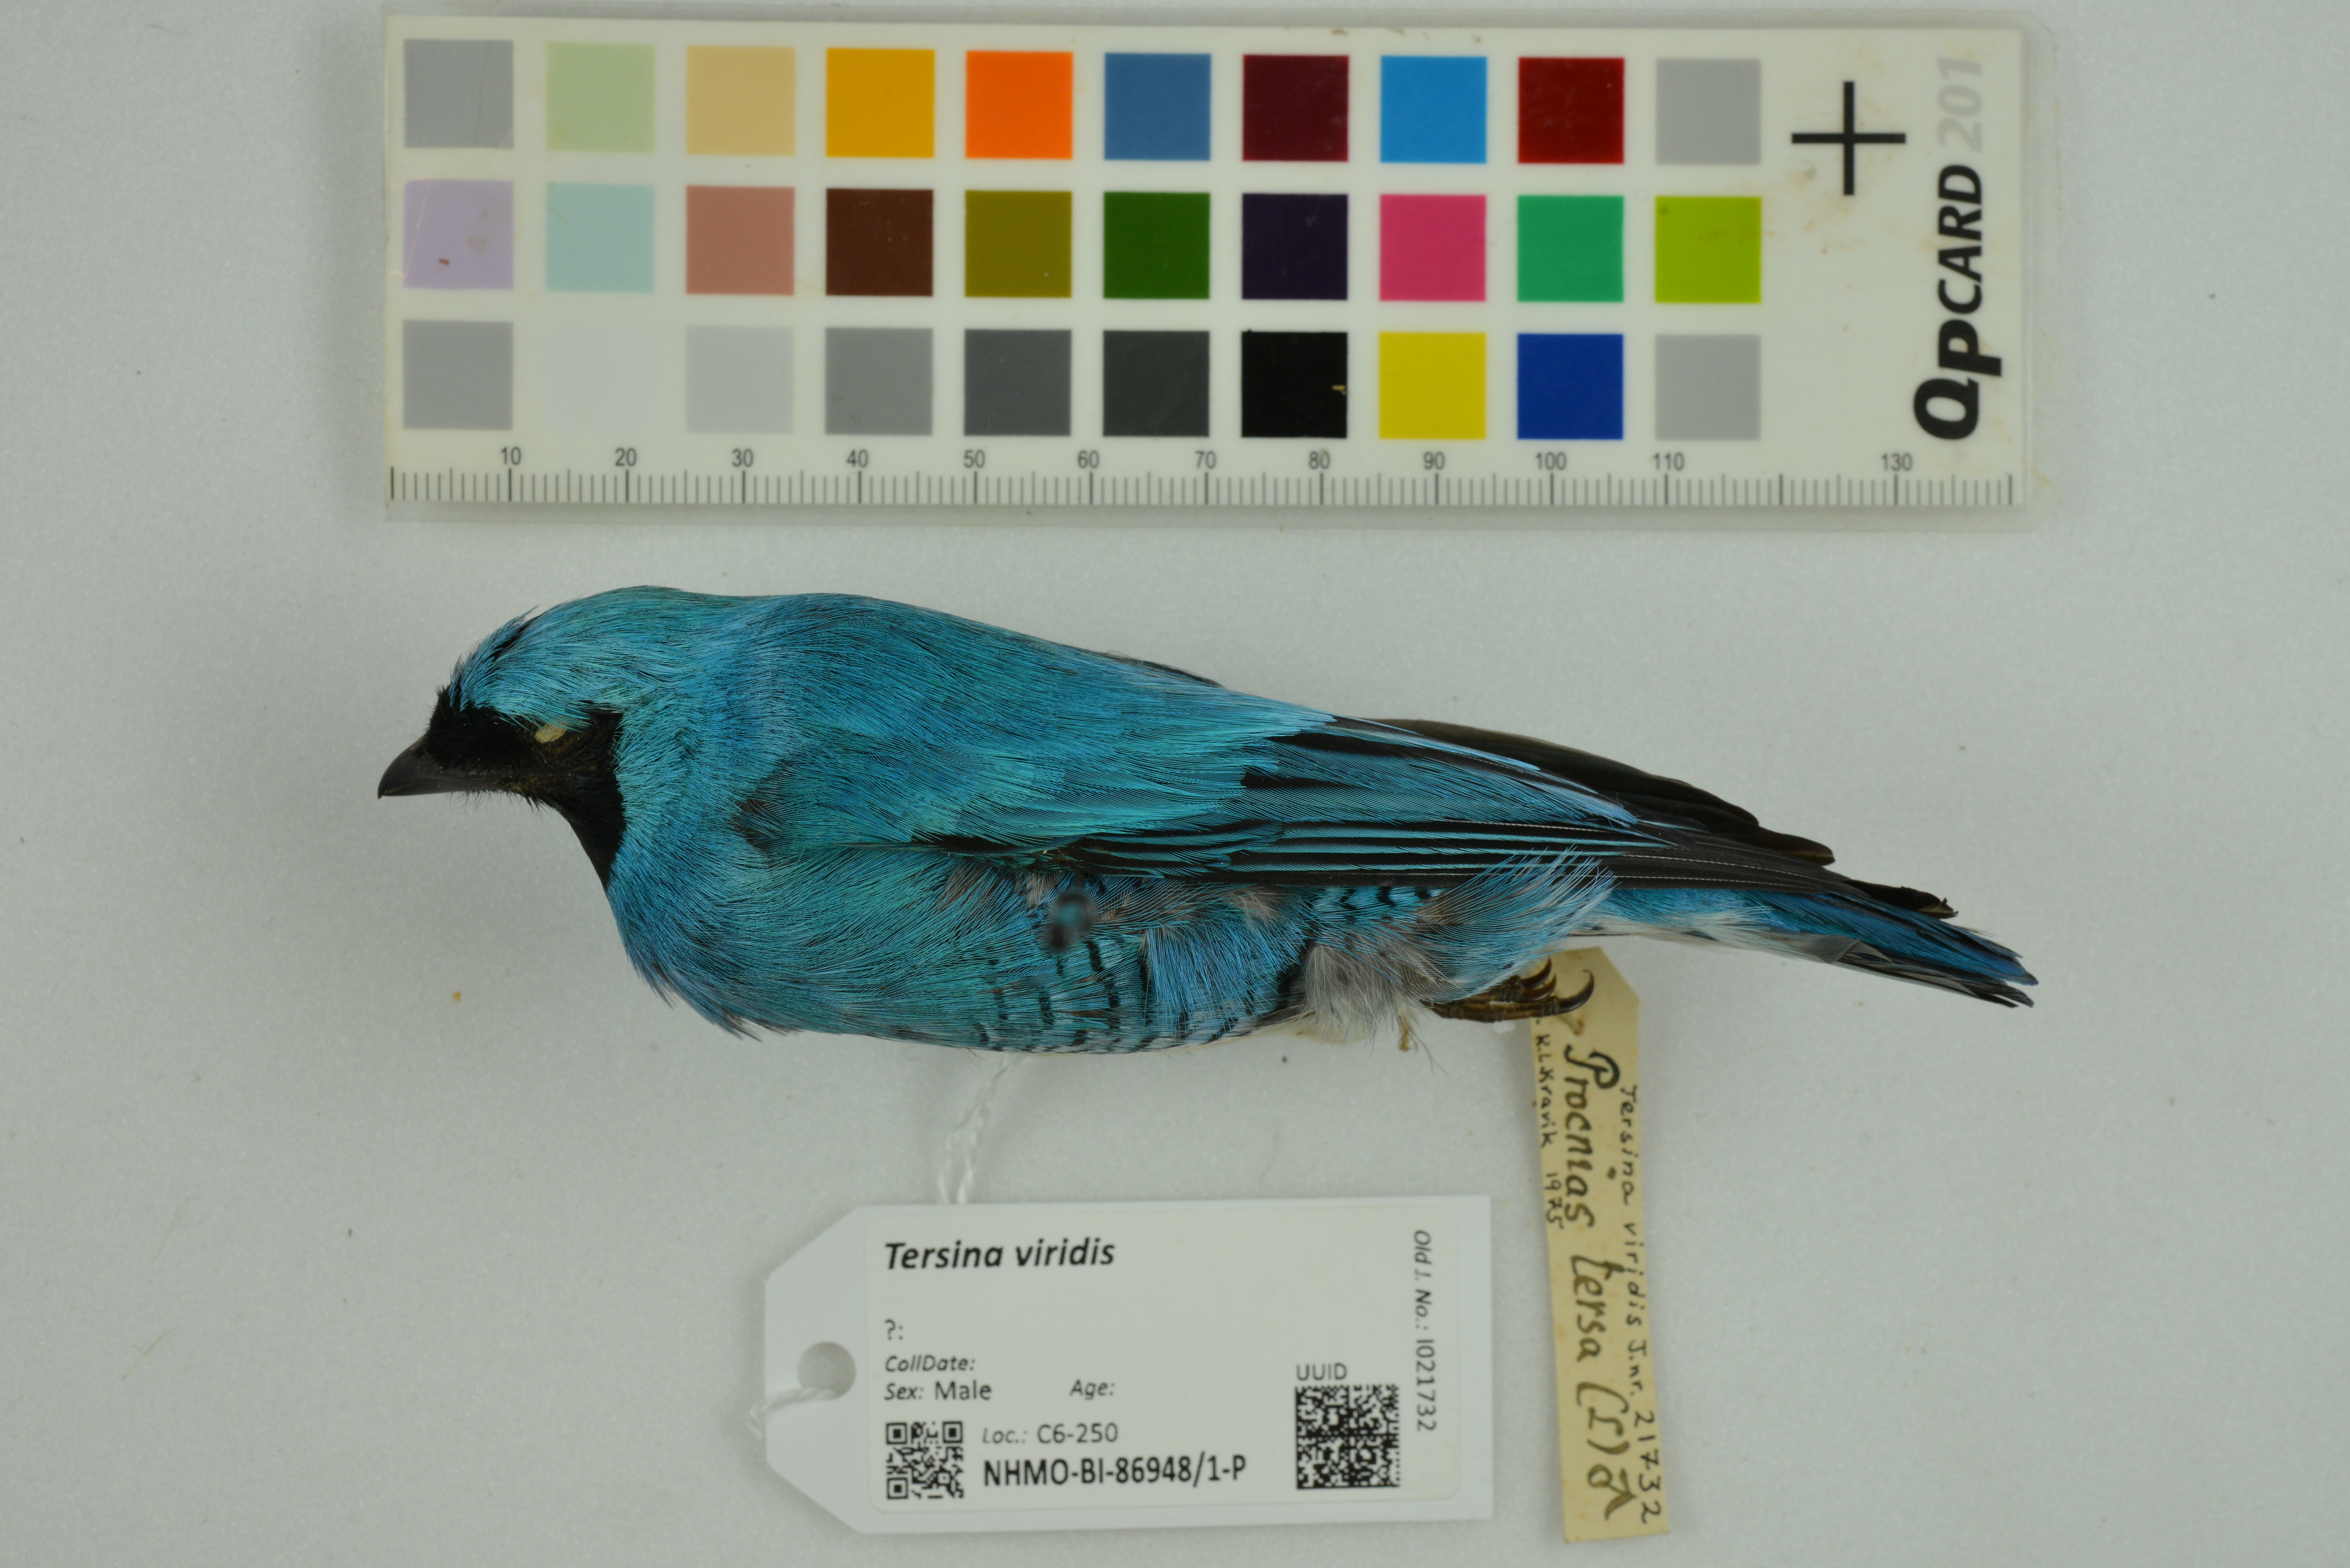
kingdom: Animalia
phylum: Chordata
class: Aves
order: Passeriformes
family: Thraupidae
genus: Tersina
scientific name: Tersina viridis
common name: Swallow tanager
